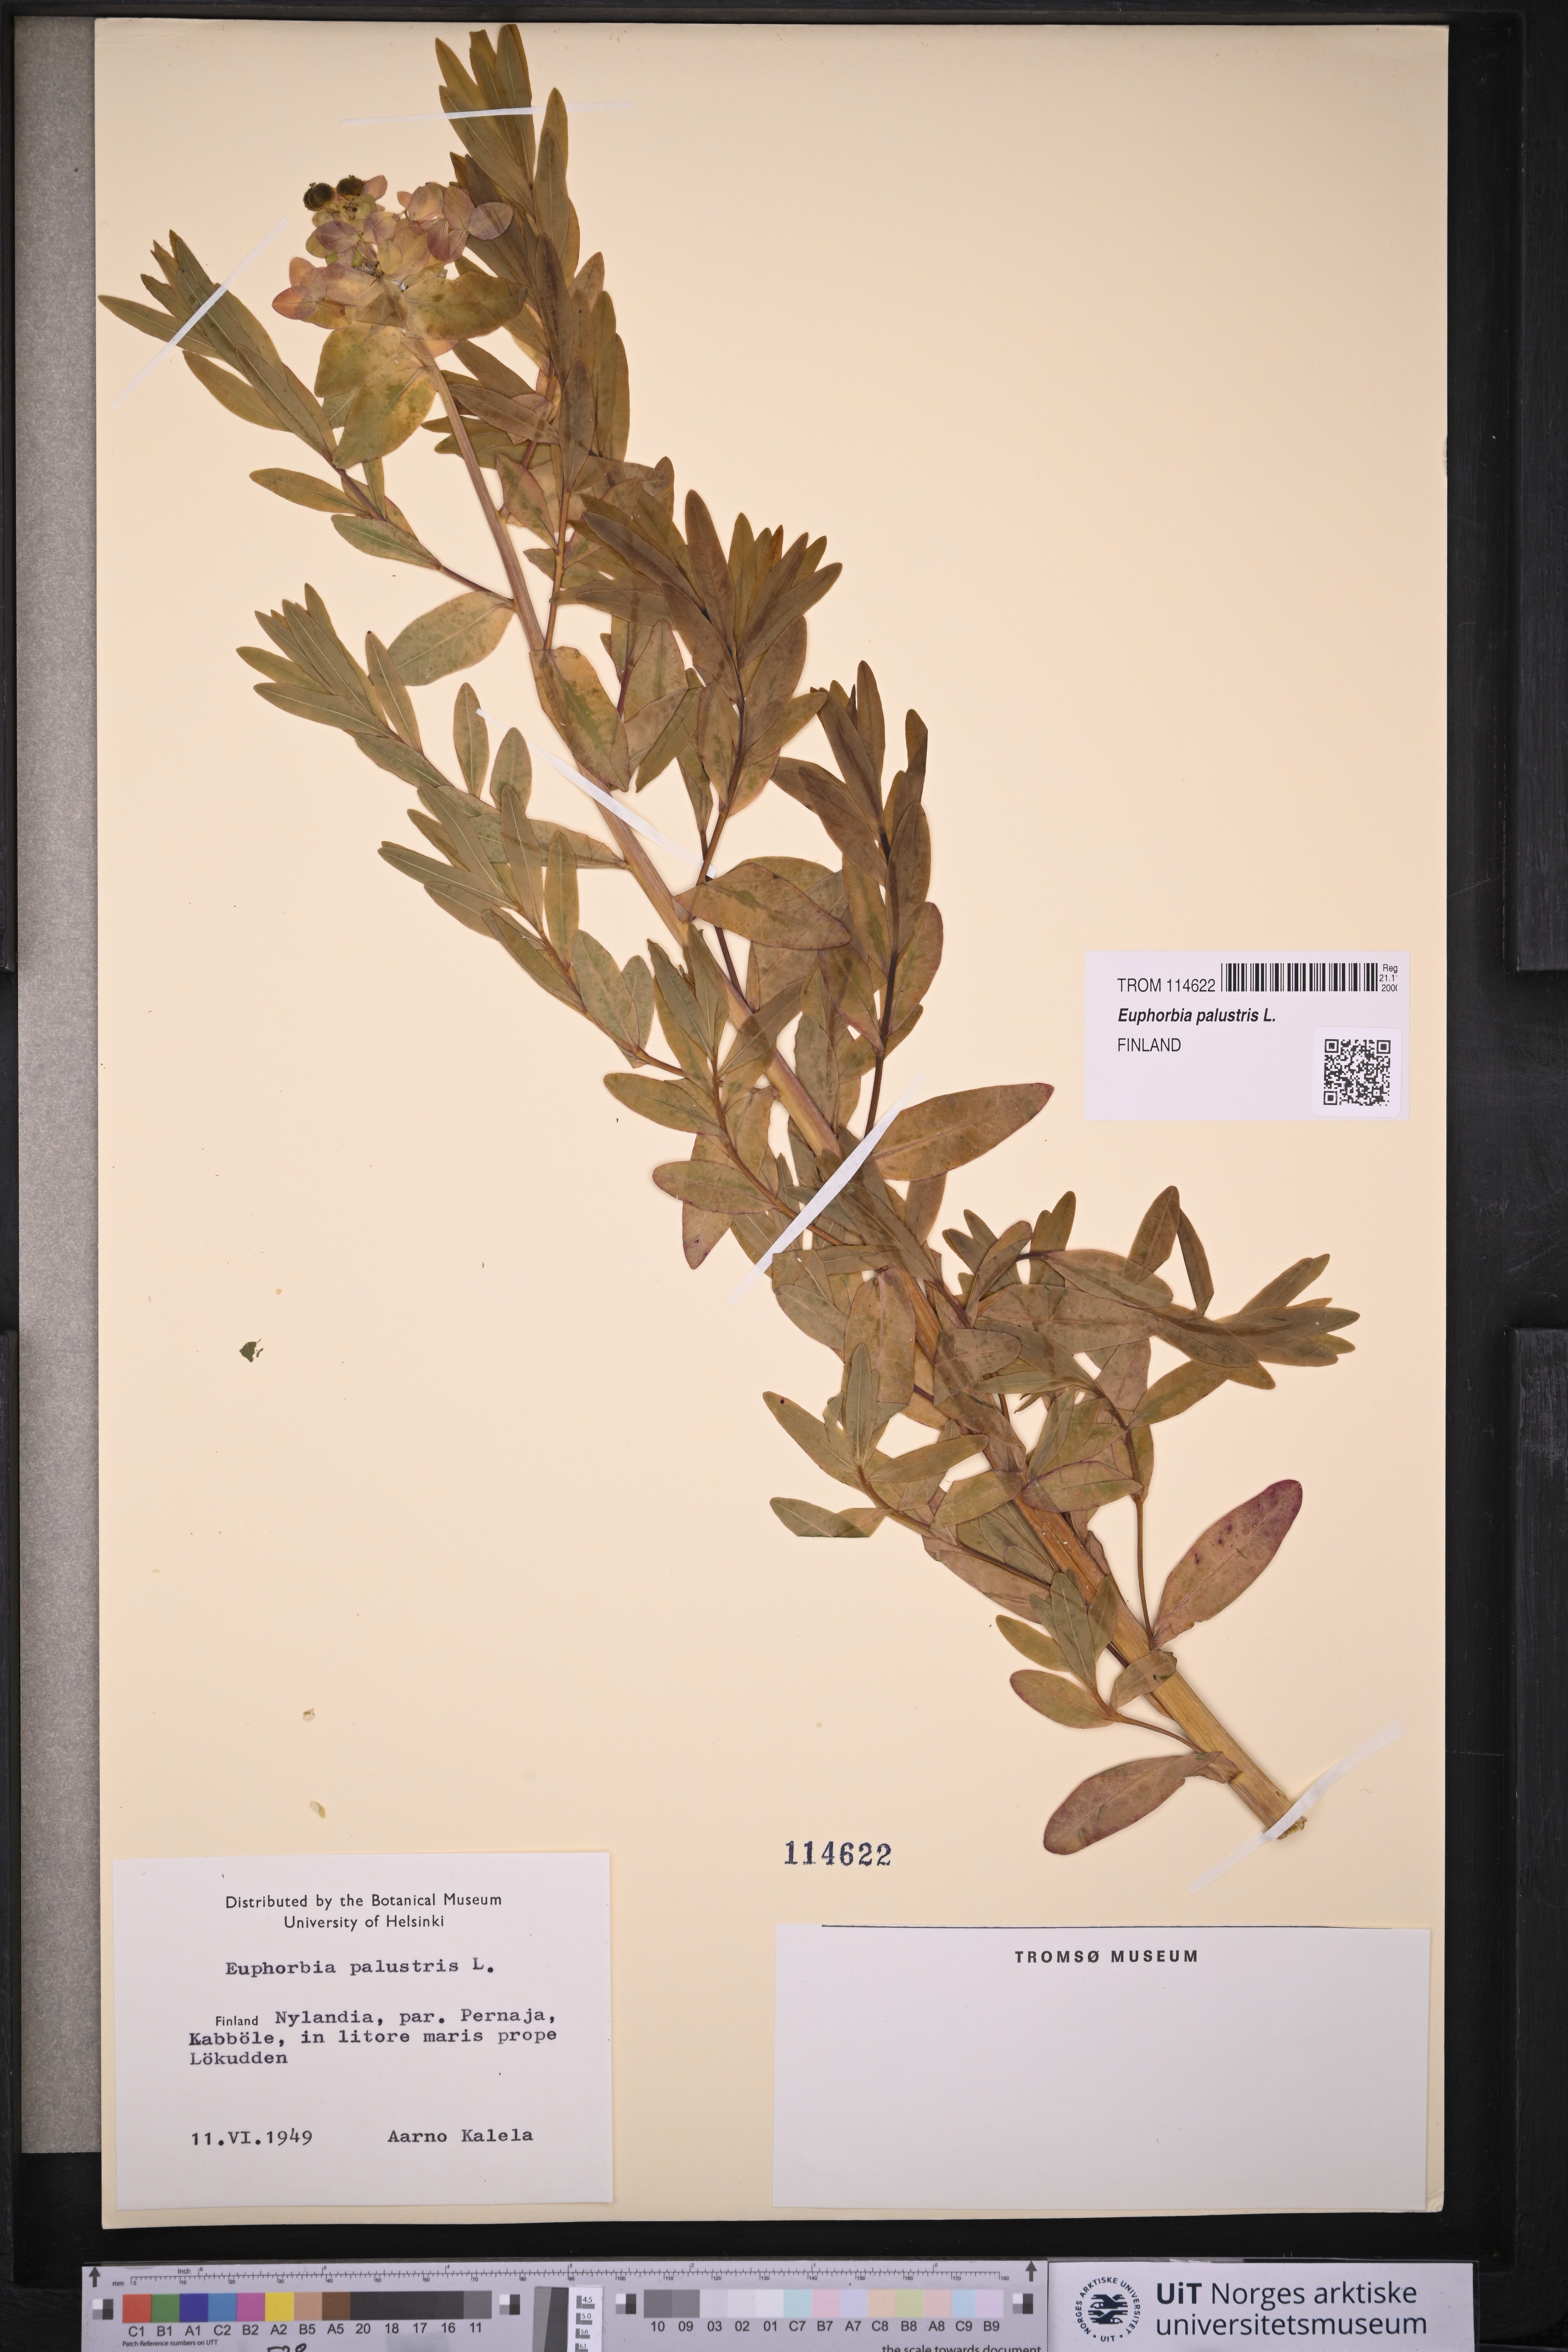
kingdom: Plantae
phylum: Tracheophyta
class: Magnoliopsida
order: Malpighiales
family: Euphorbiaceae
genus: Euphorbia
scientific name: Euphorbia palustris
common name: Marsh spurge
